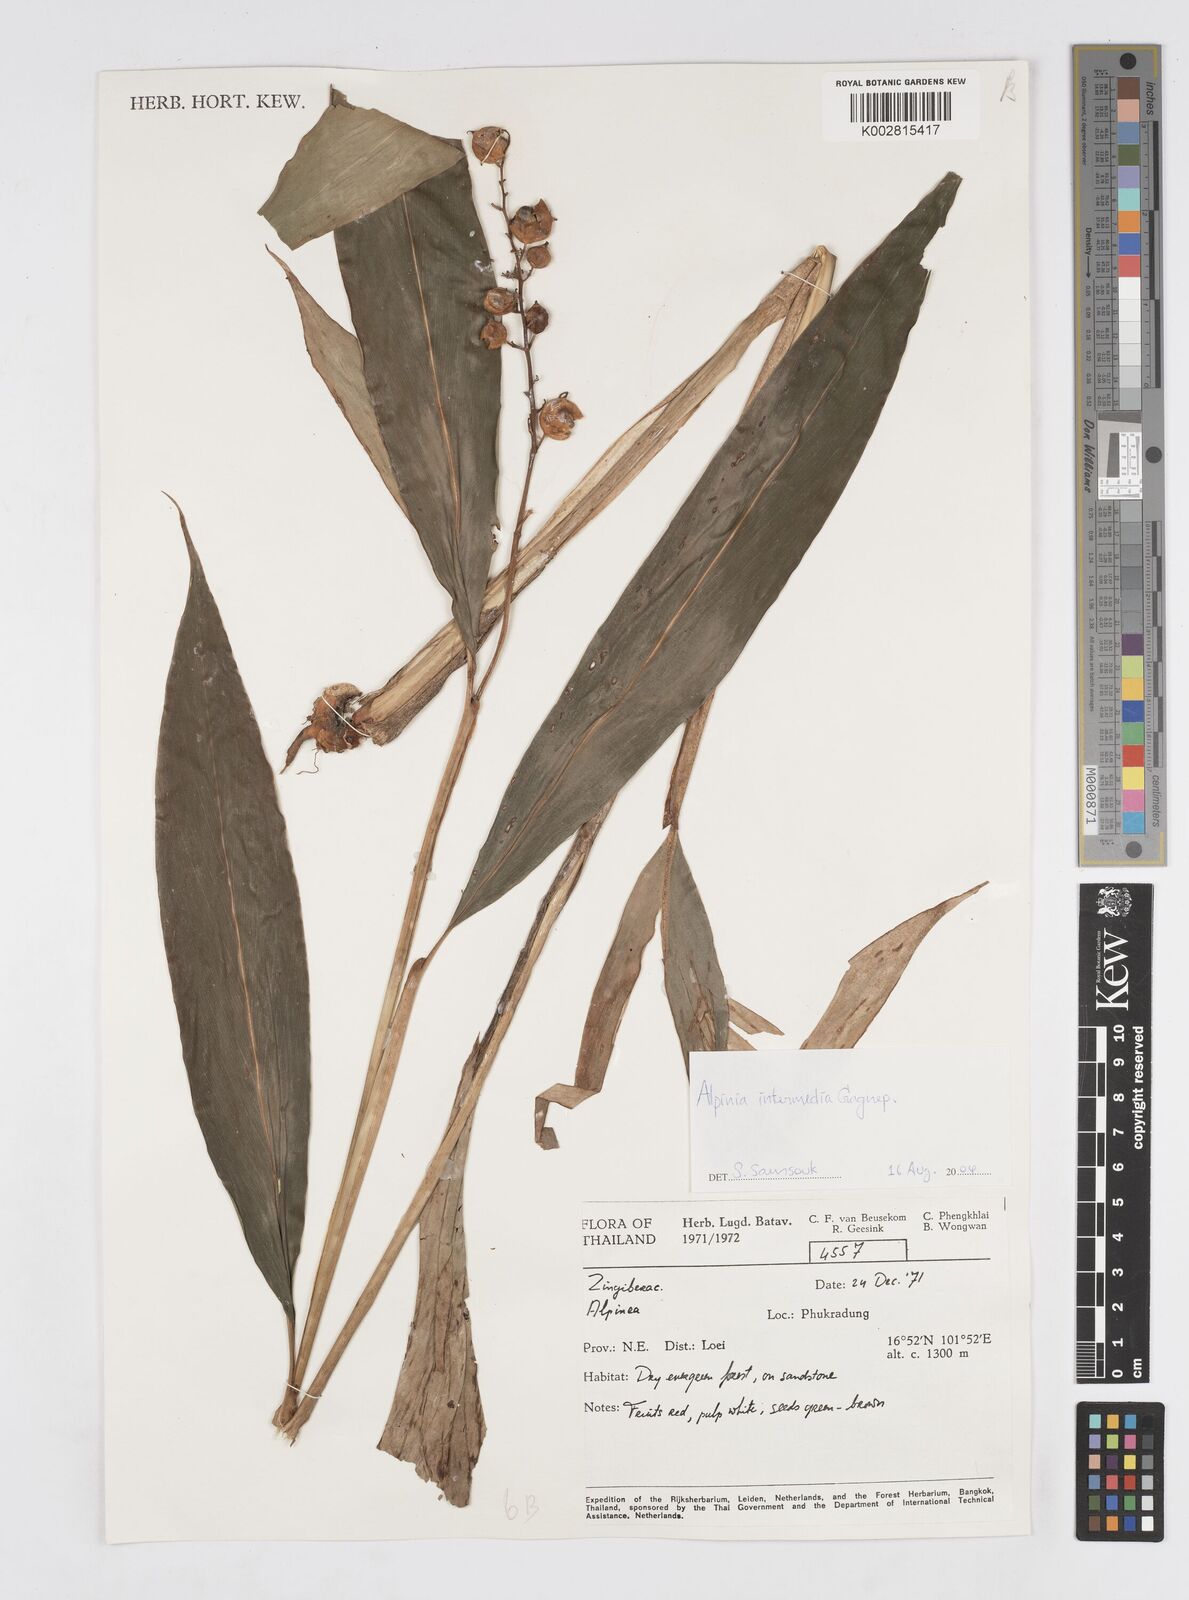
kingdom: Plantae
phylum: Tracheophyta
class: Liliopsida
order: Zingiberales
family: Zingiberaceae
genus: Alpinia
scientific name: Alpinia intermedia
